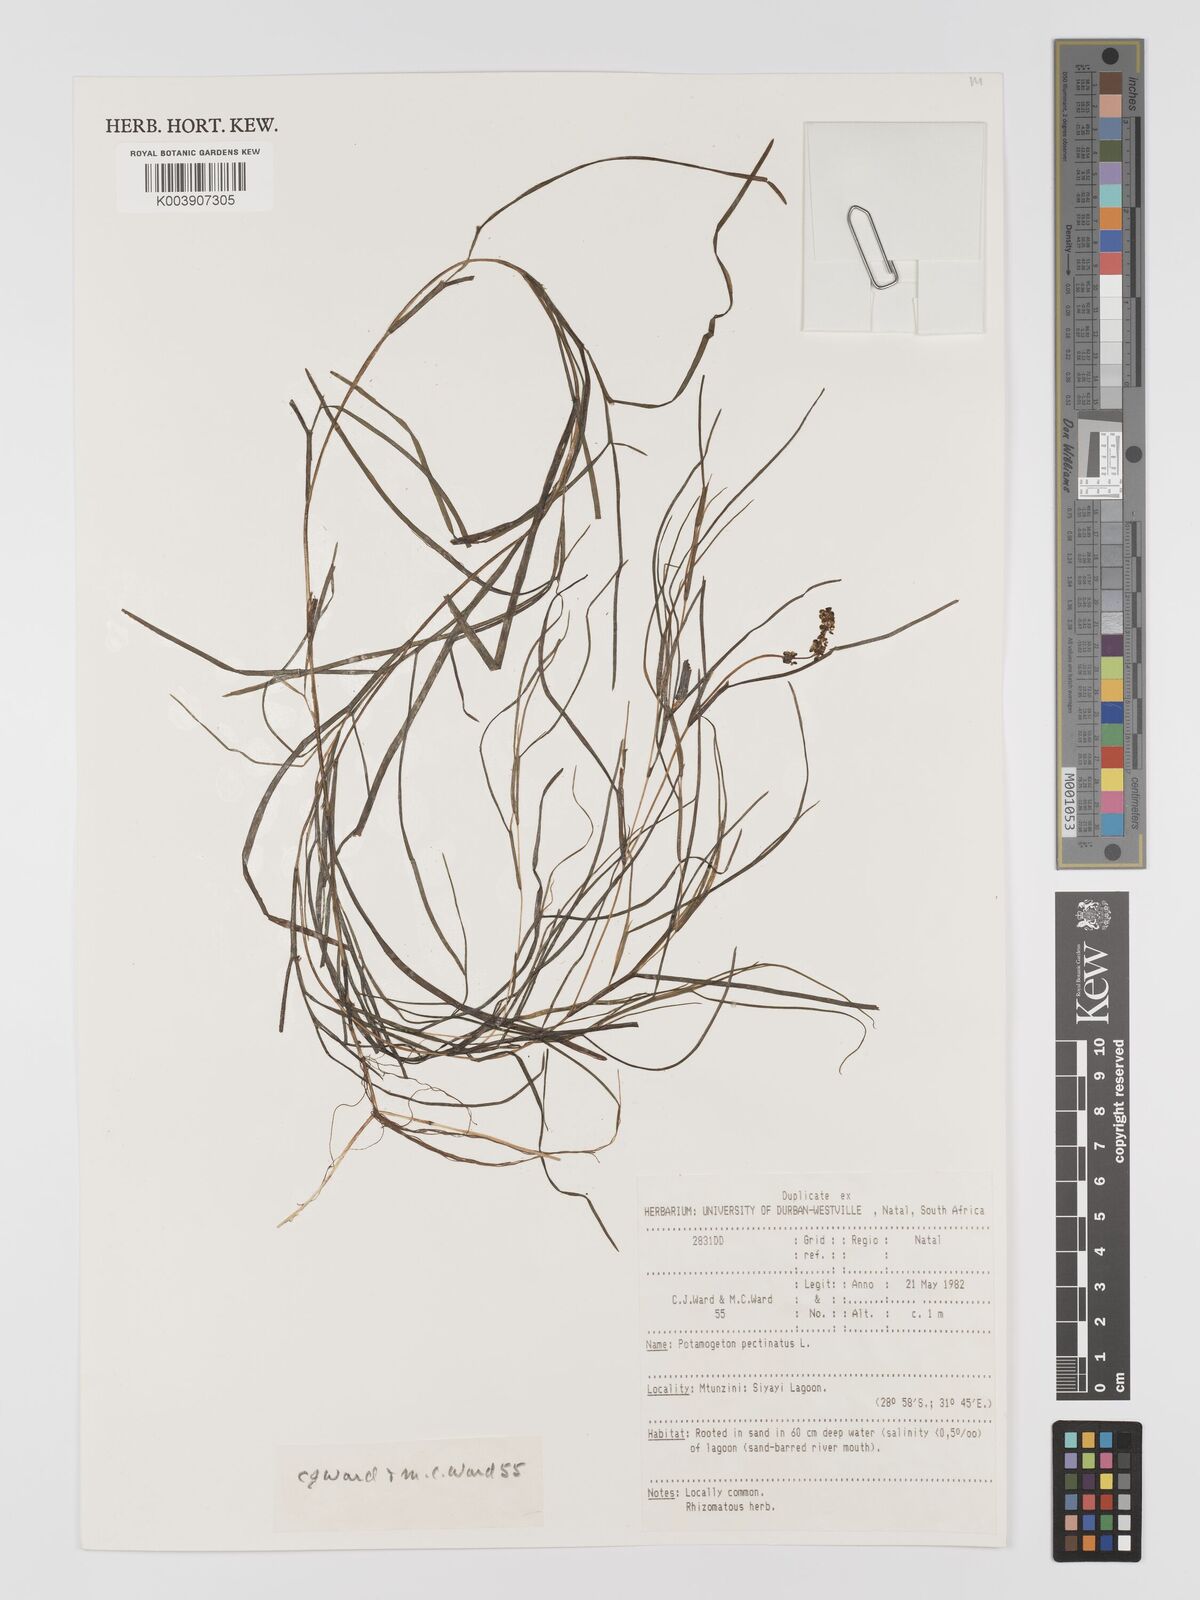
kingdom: Plantae
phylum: Tracheophyta
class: Liliopsida
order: Alismatales
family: Potamogetonaceae
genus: Stuckenia
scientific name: Stuckenia pectinata
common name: Sago pondweed
